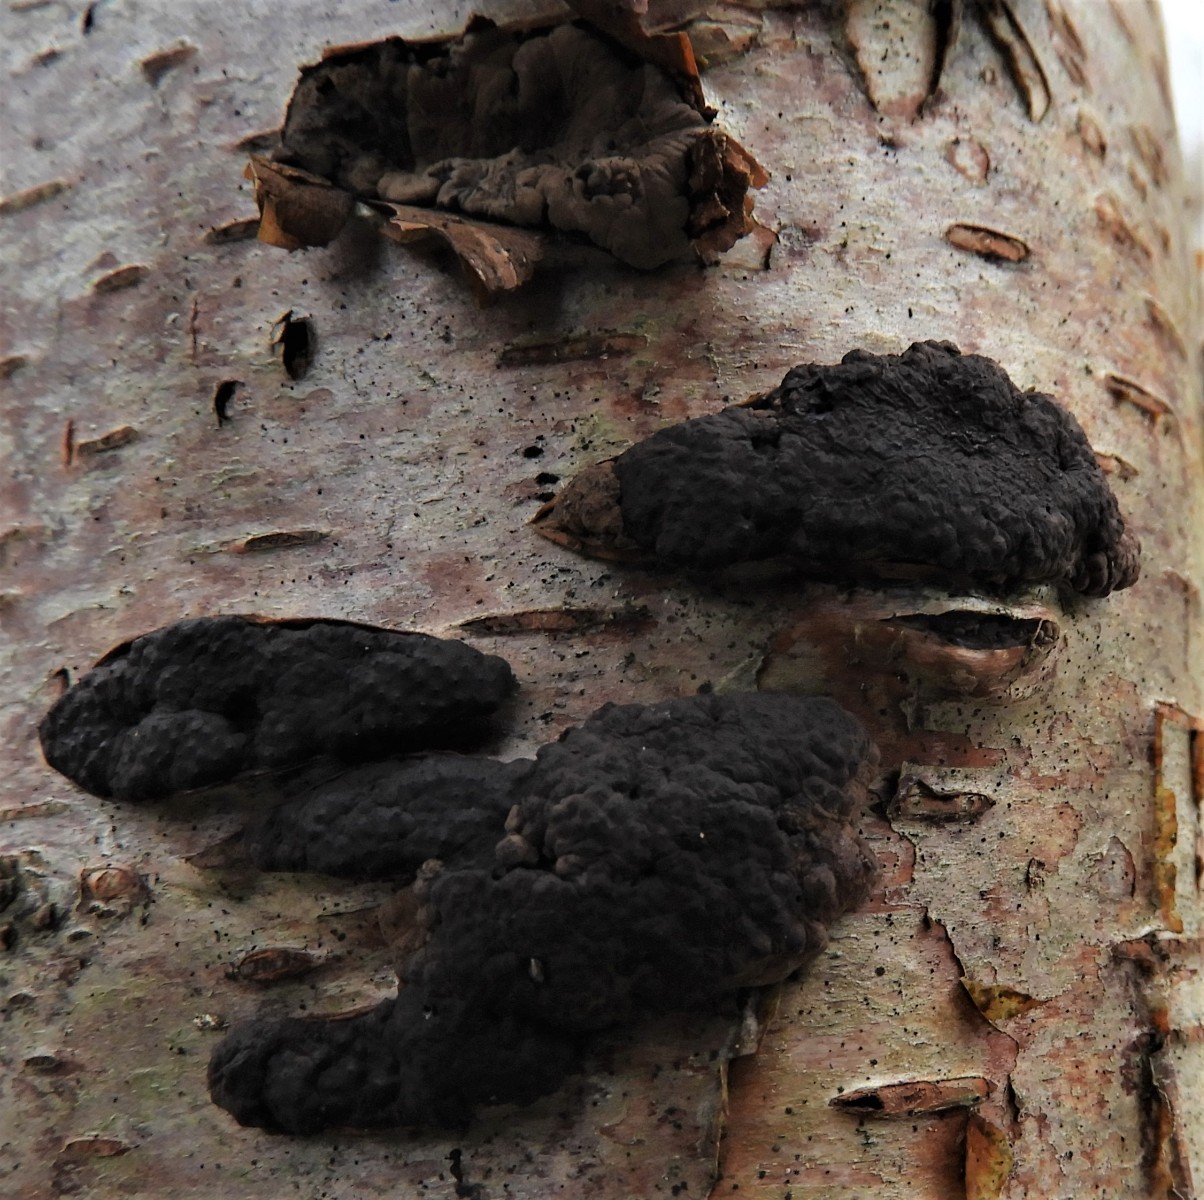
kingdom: Fungi
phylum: Ascomycota
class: Sordariomycetes
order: Xylariales
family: Hypoxylaceae
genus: Jackrogersella
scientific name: Jackrogersella multiformis
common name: foranderlig kulbær
